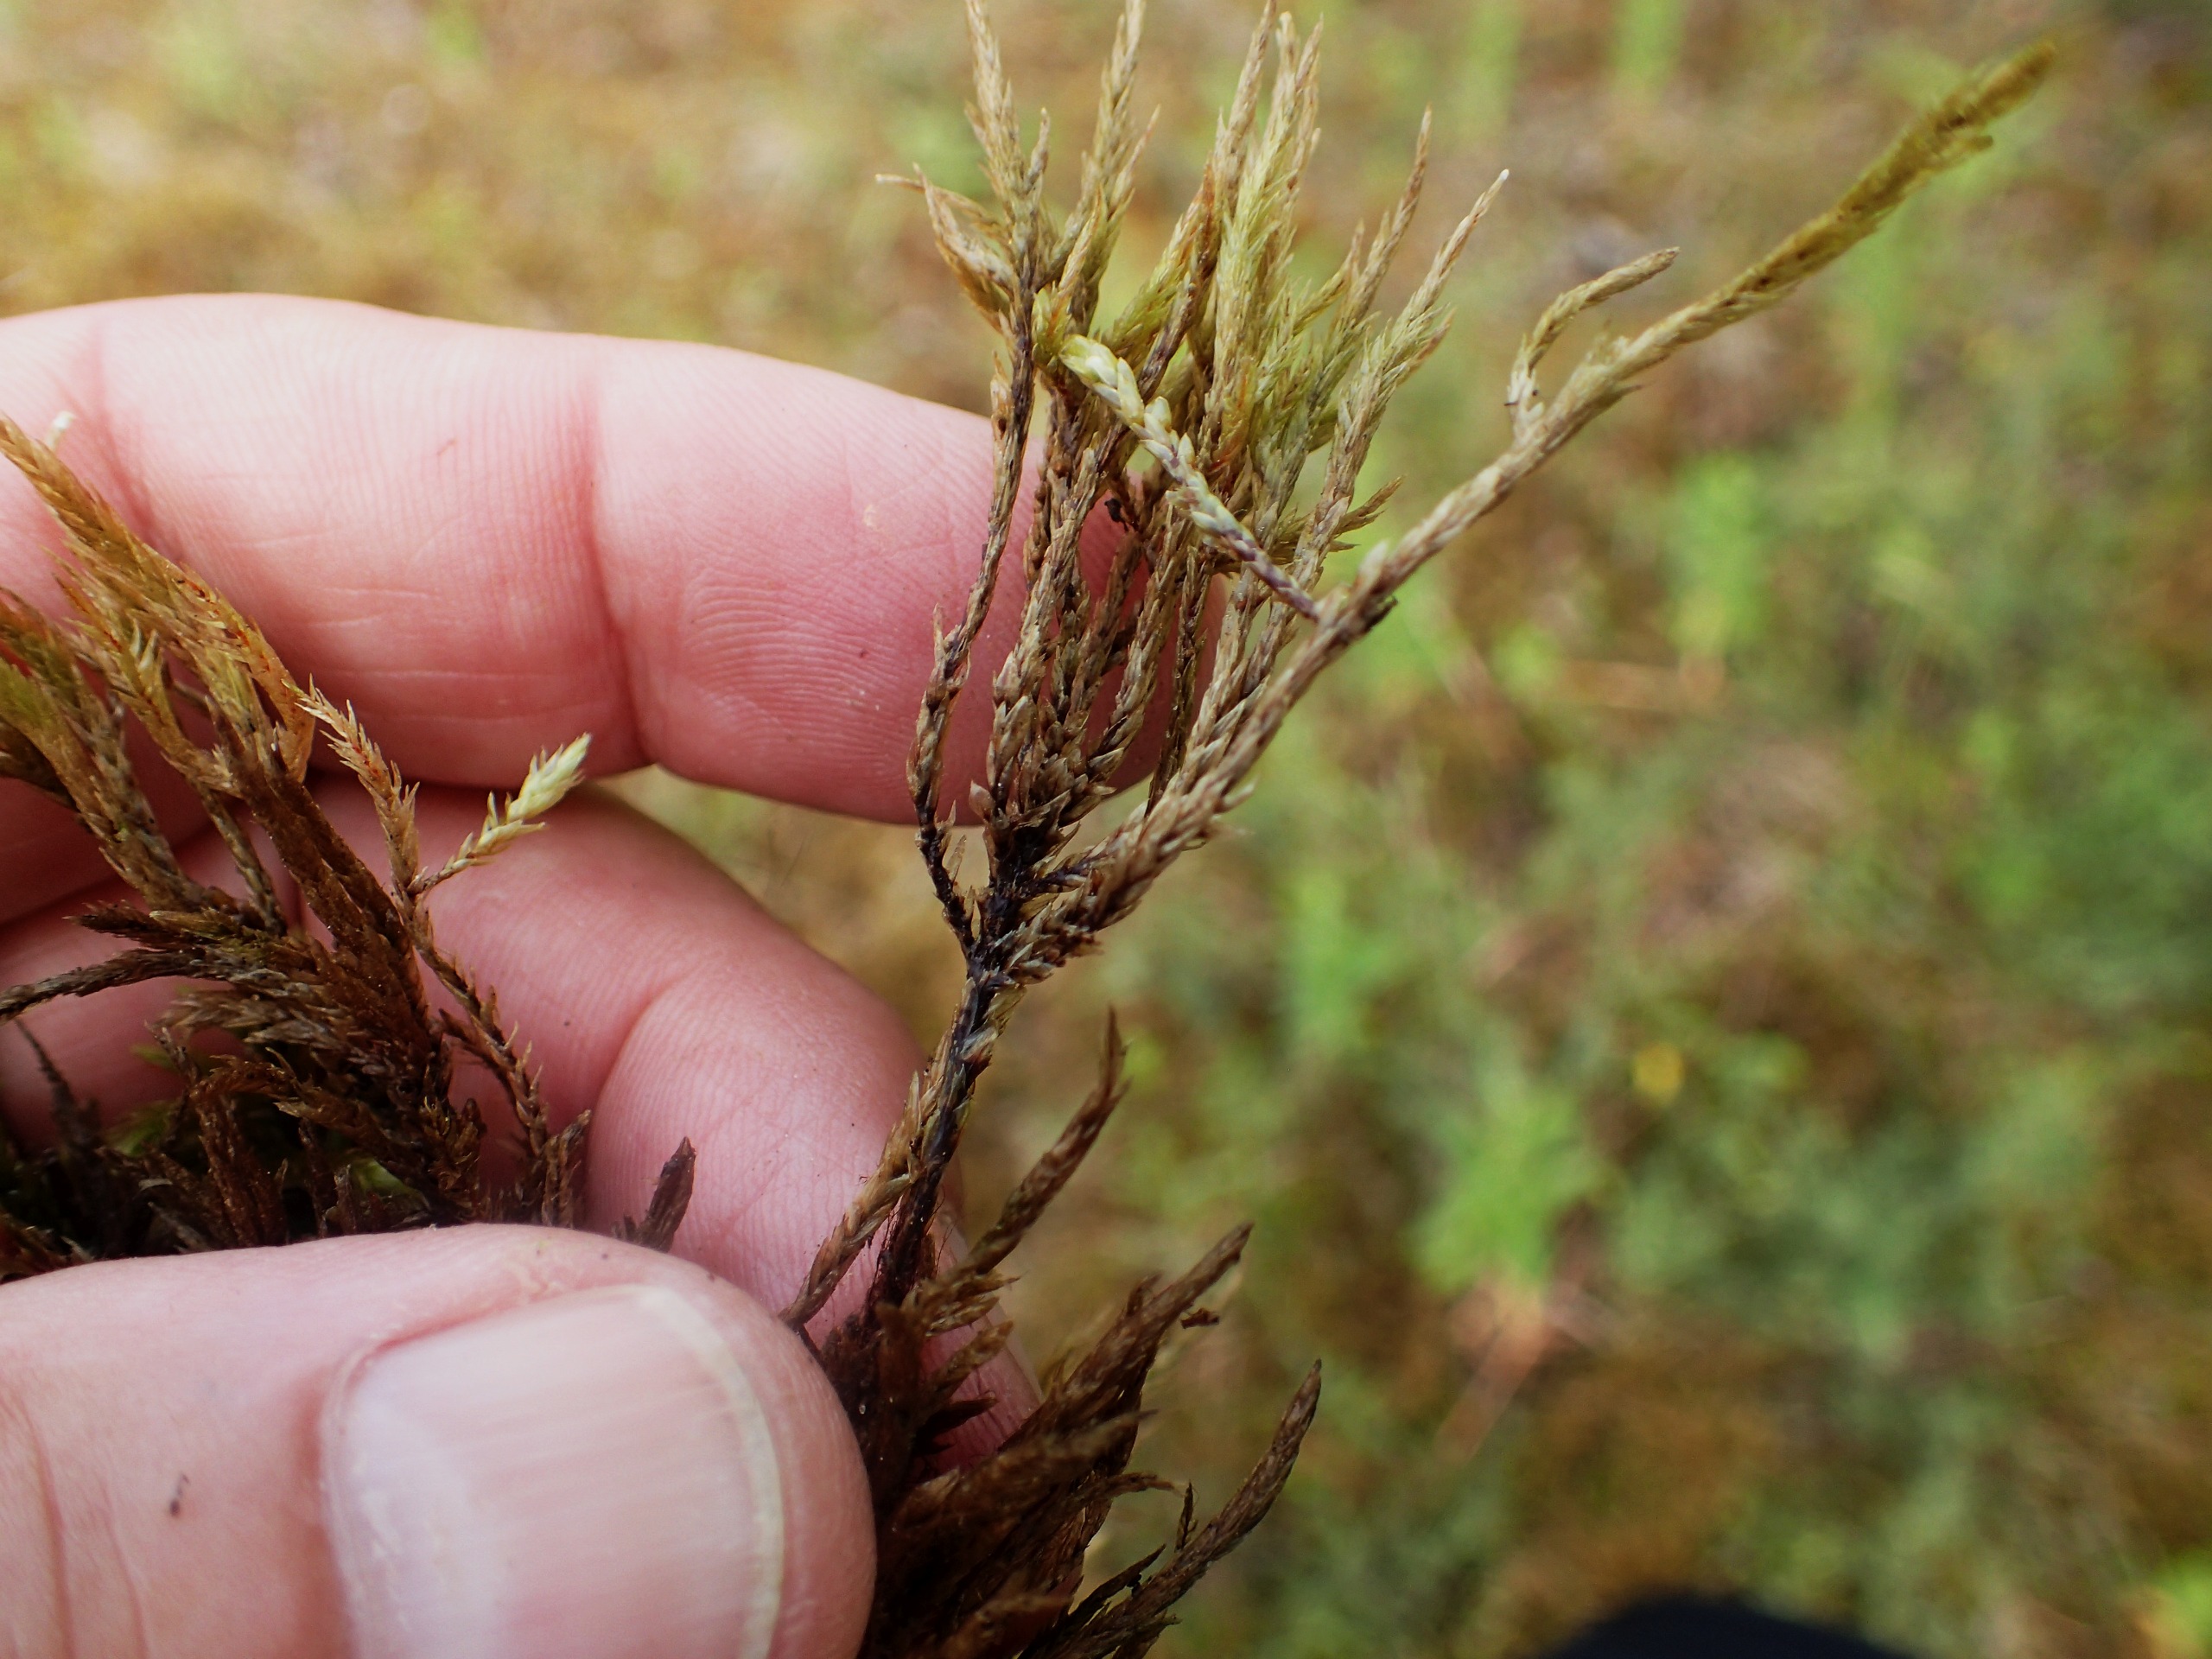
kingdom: Plantae
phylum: Bryophyta
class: Bryopsida
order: Hypnales
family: Climaciaceae
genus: Climacium
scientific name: Climacium dendroides
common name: Stor engkost
